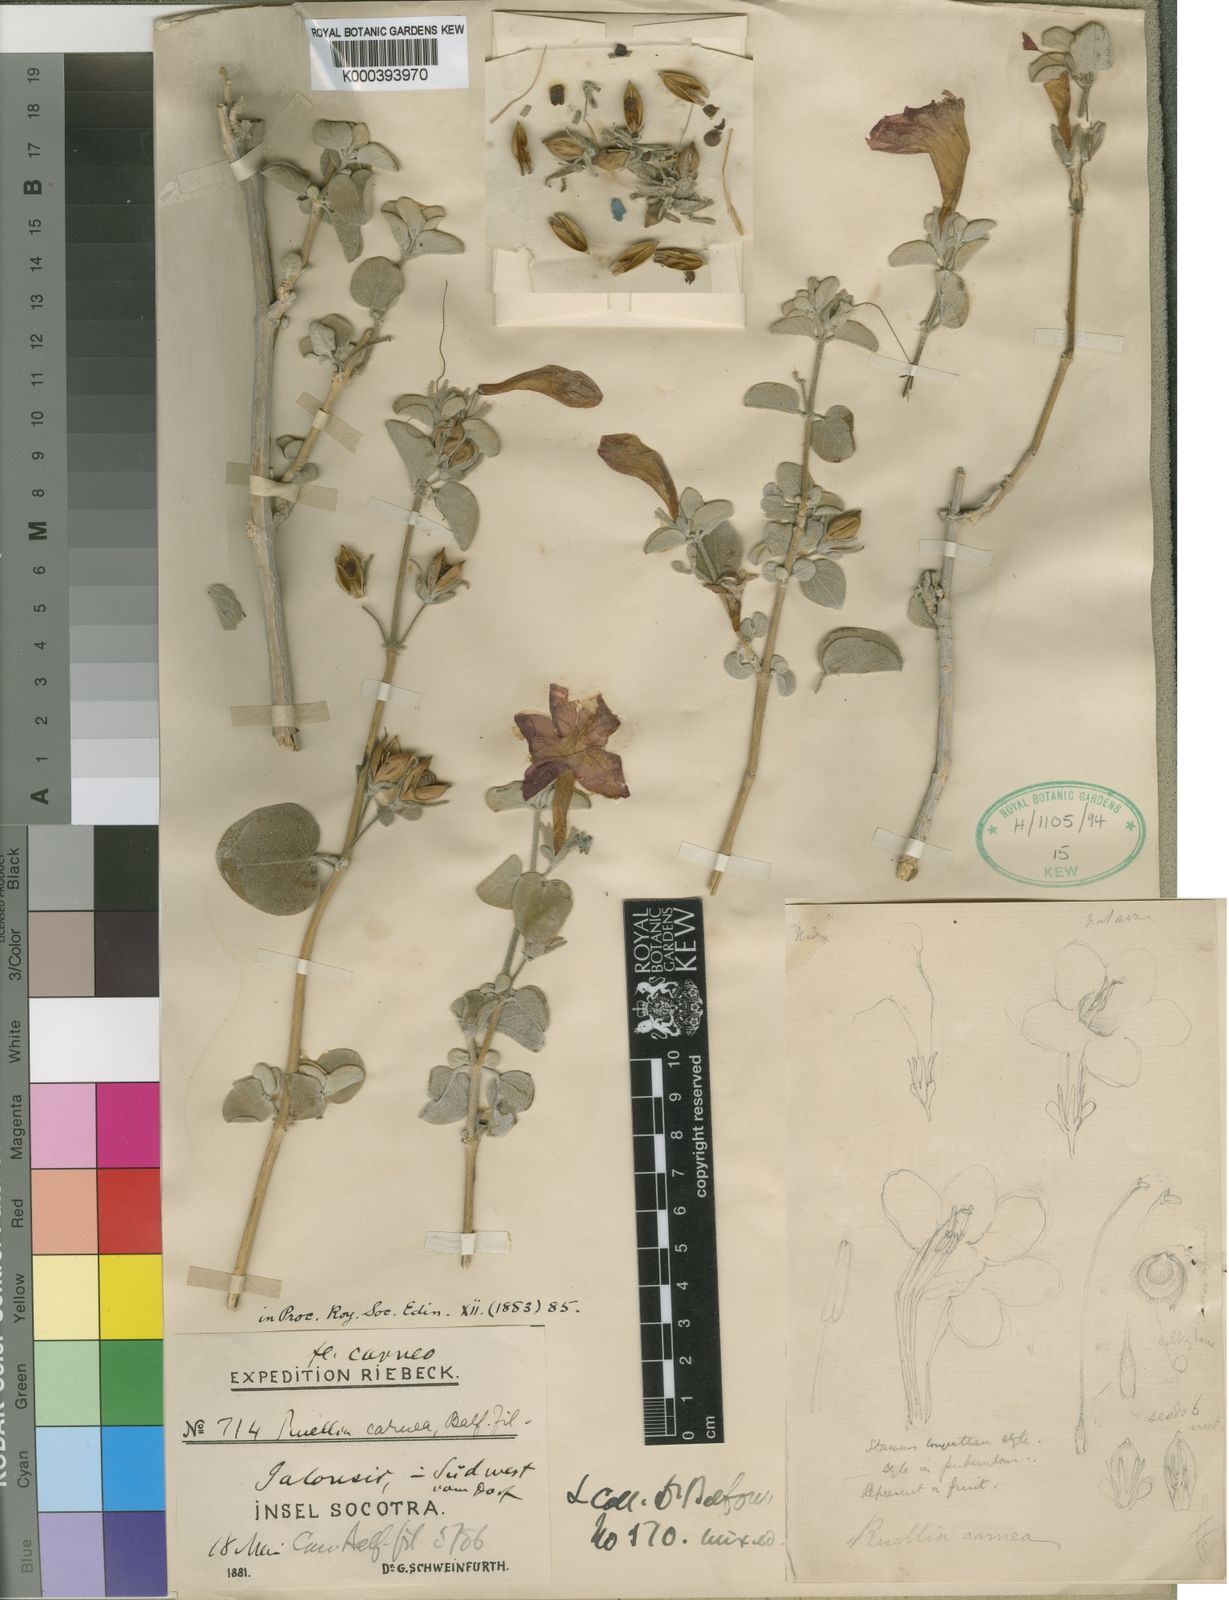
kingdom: Plantae
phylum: Tracheophyta
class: Magnoliopsida
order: Lamiales
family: Acanthaceae
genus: Ruellia
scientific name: Ruellia carnea
